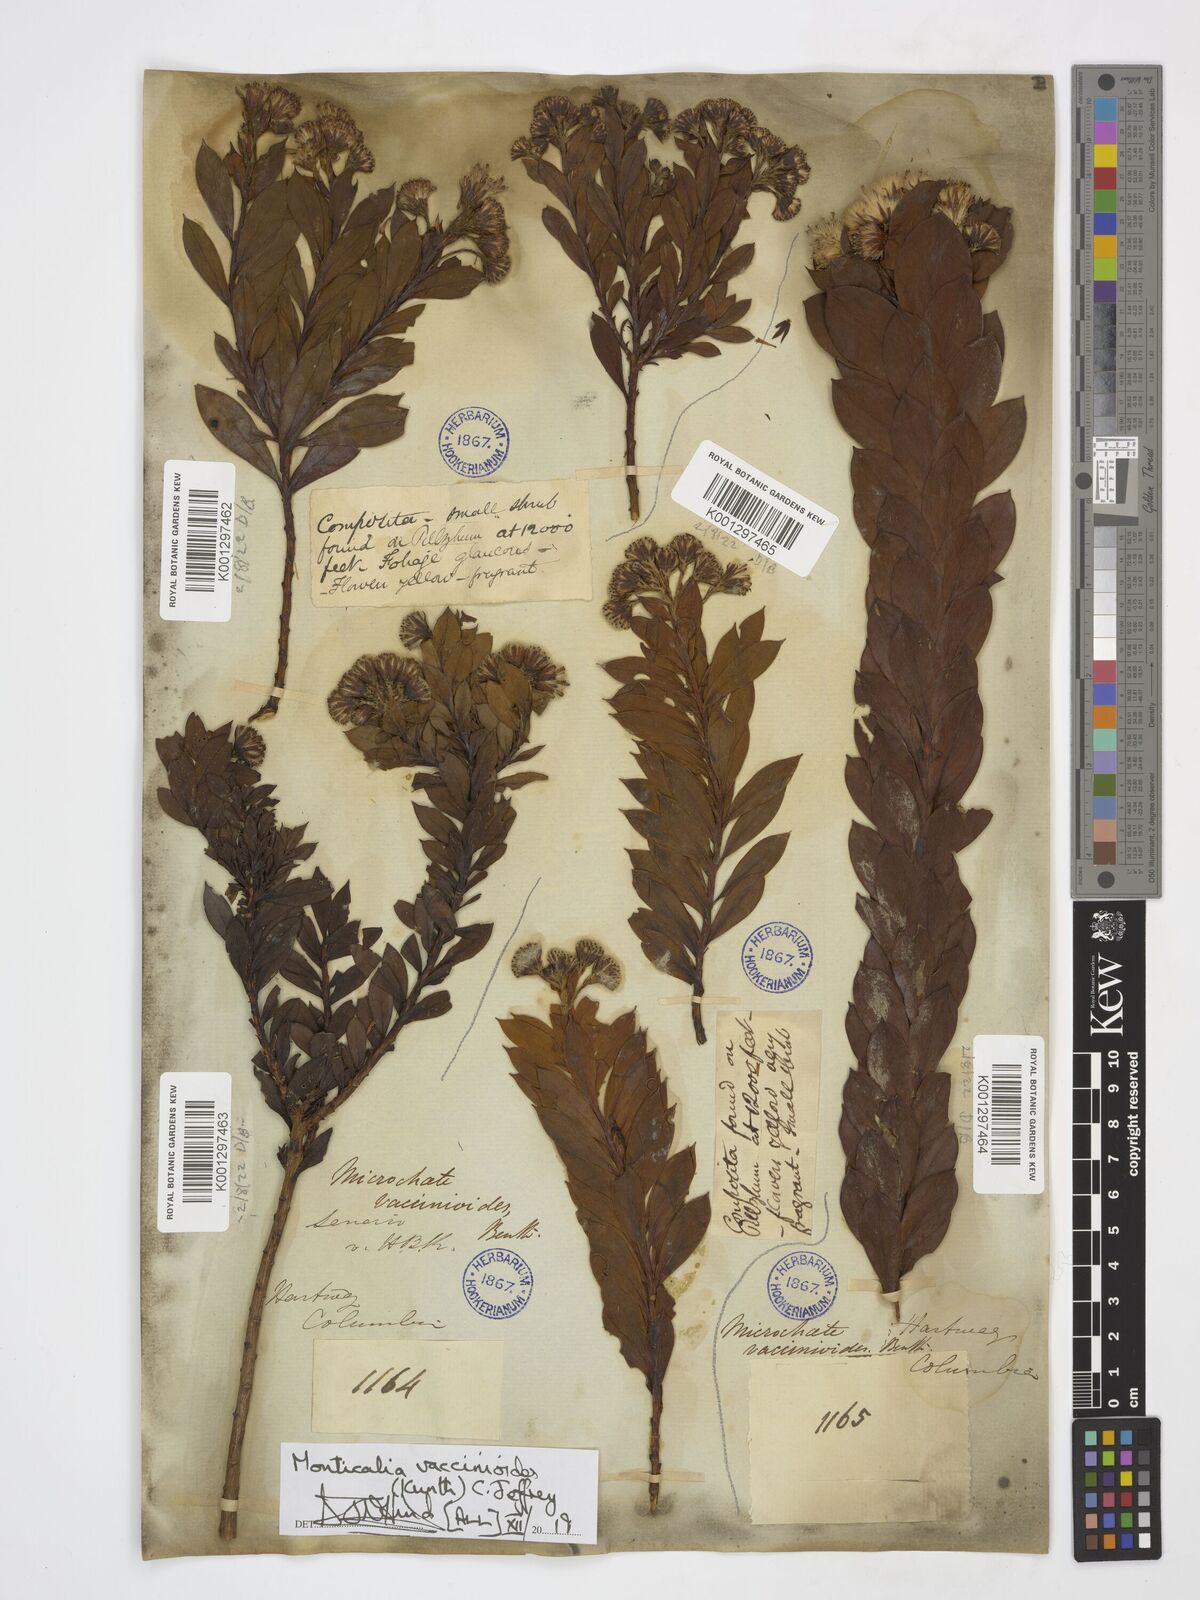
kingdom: Plantae
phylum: Tracheophyta
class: Magnoliopsida
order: Asterales
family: Asteraceae
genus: Monticalia
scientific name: Monticalia vaccinioides
